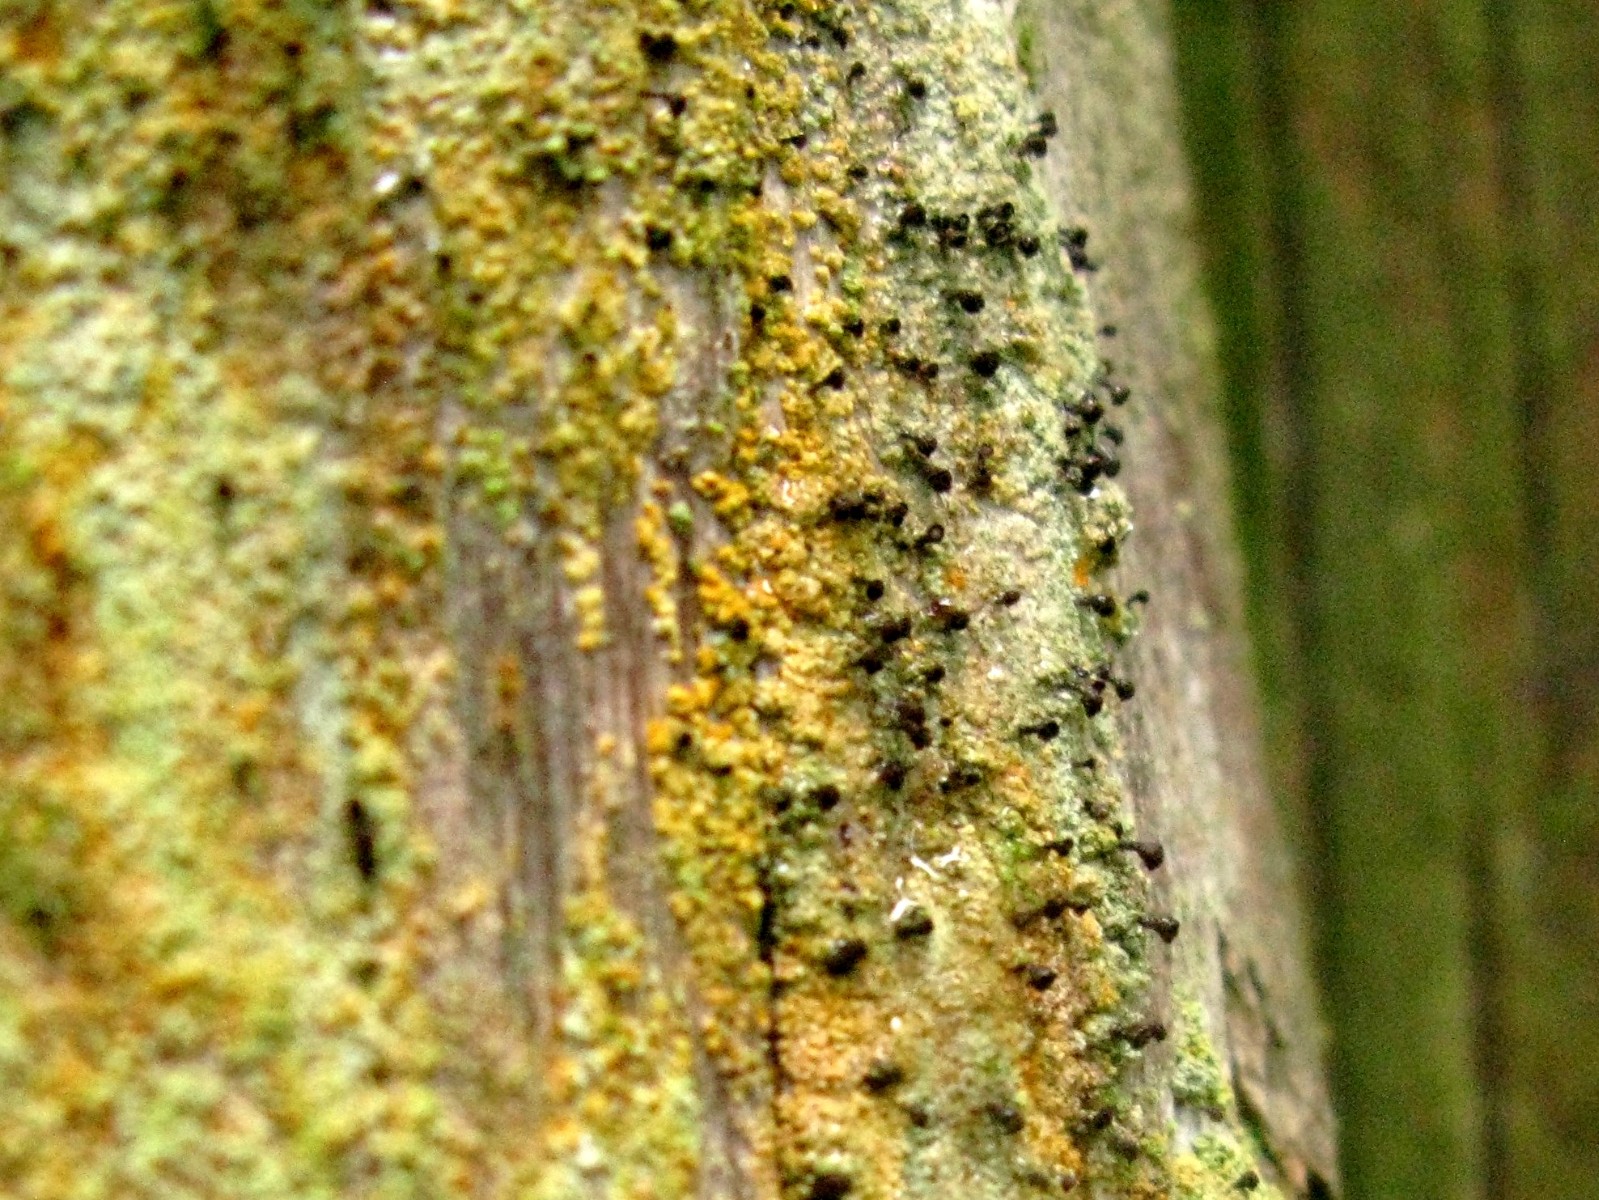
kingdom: Fungi
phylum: Ascomycota
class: Coniocybomycetes
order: Coniocybales
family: Coniocybaceae
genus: Chaenotheca
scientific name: Chaenotheca ferruginea
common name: rustbrun knappenålslav
